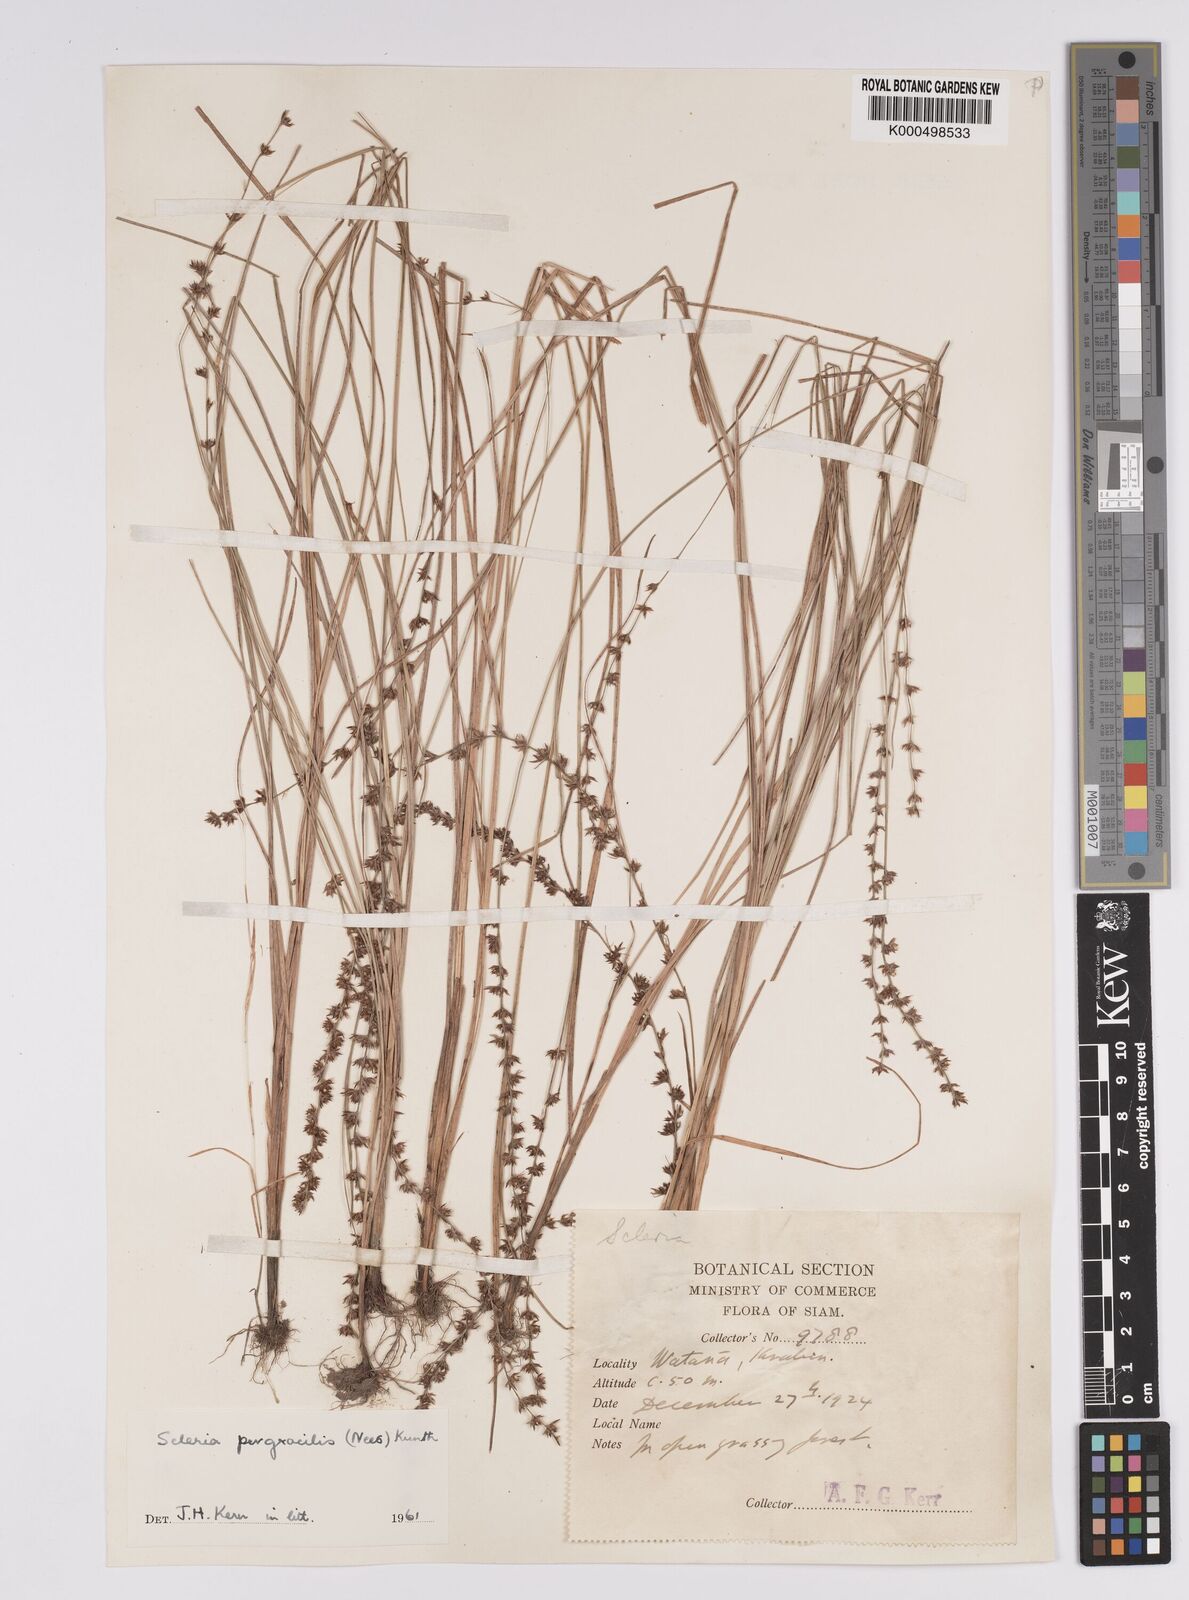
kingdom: Plantae
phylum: Tracheophyta
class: Liliopsida
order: Poales
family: Cyperaceae
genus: Scleria
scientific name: Scleria pergracilis
